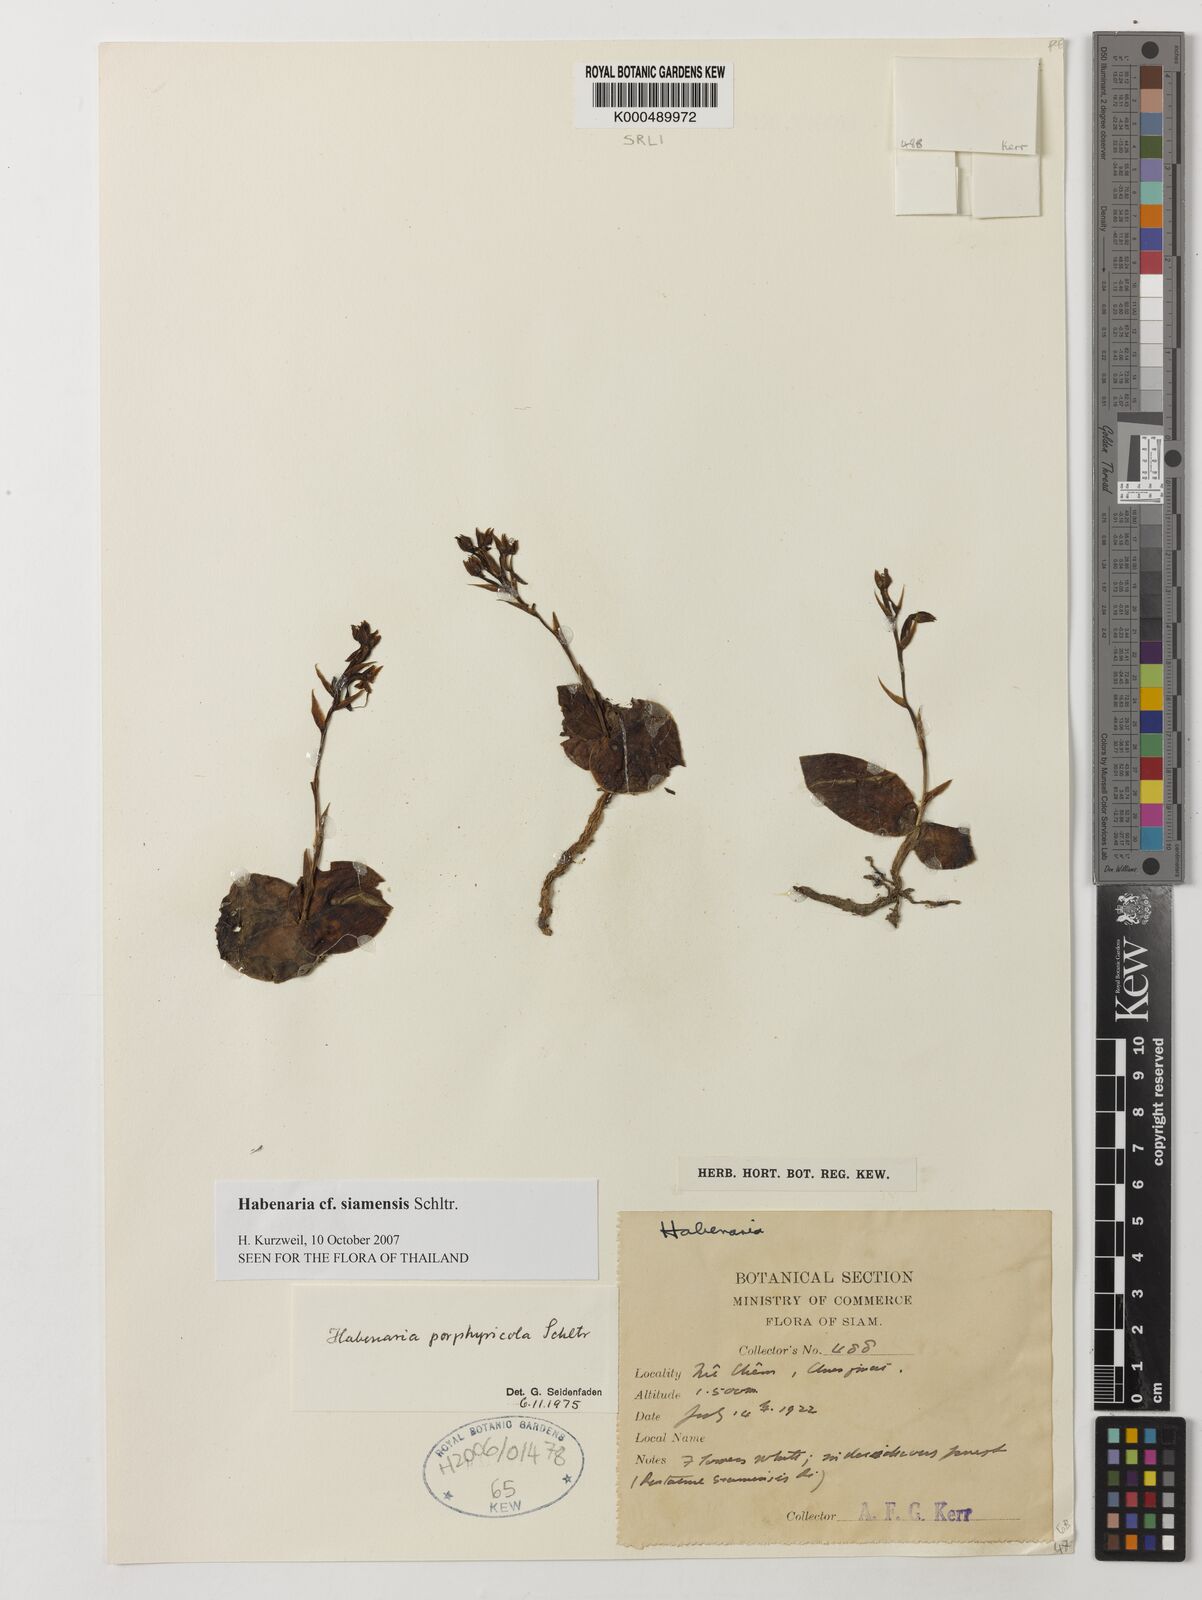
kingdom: Plantae
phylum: Tracheophyta
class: Liliopsida
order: Asparagales
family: Orchidaceae
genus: Habenaria
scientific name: Habenaria siamensis
